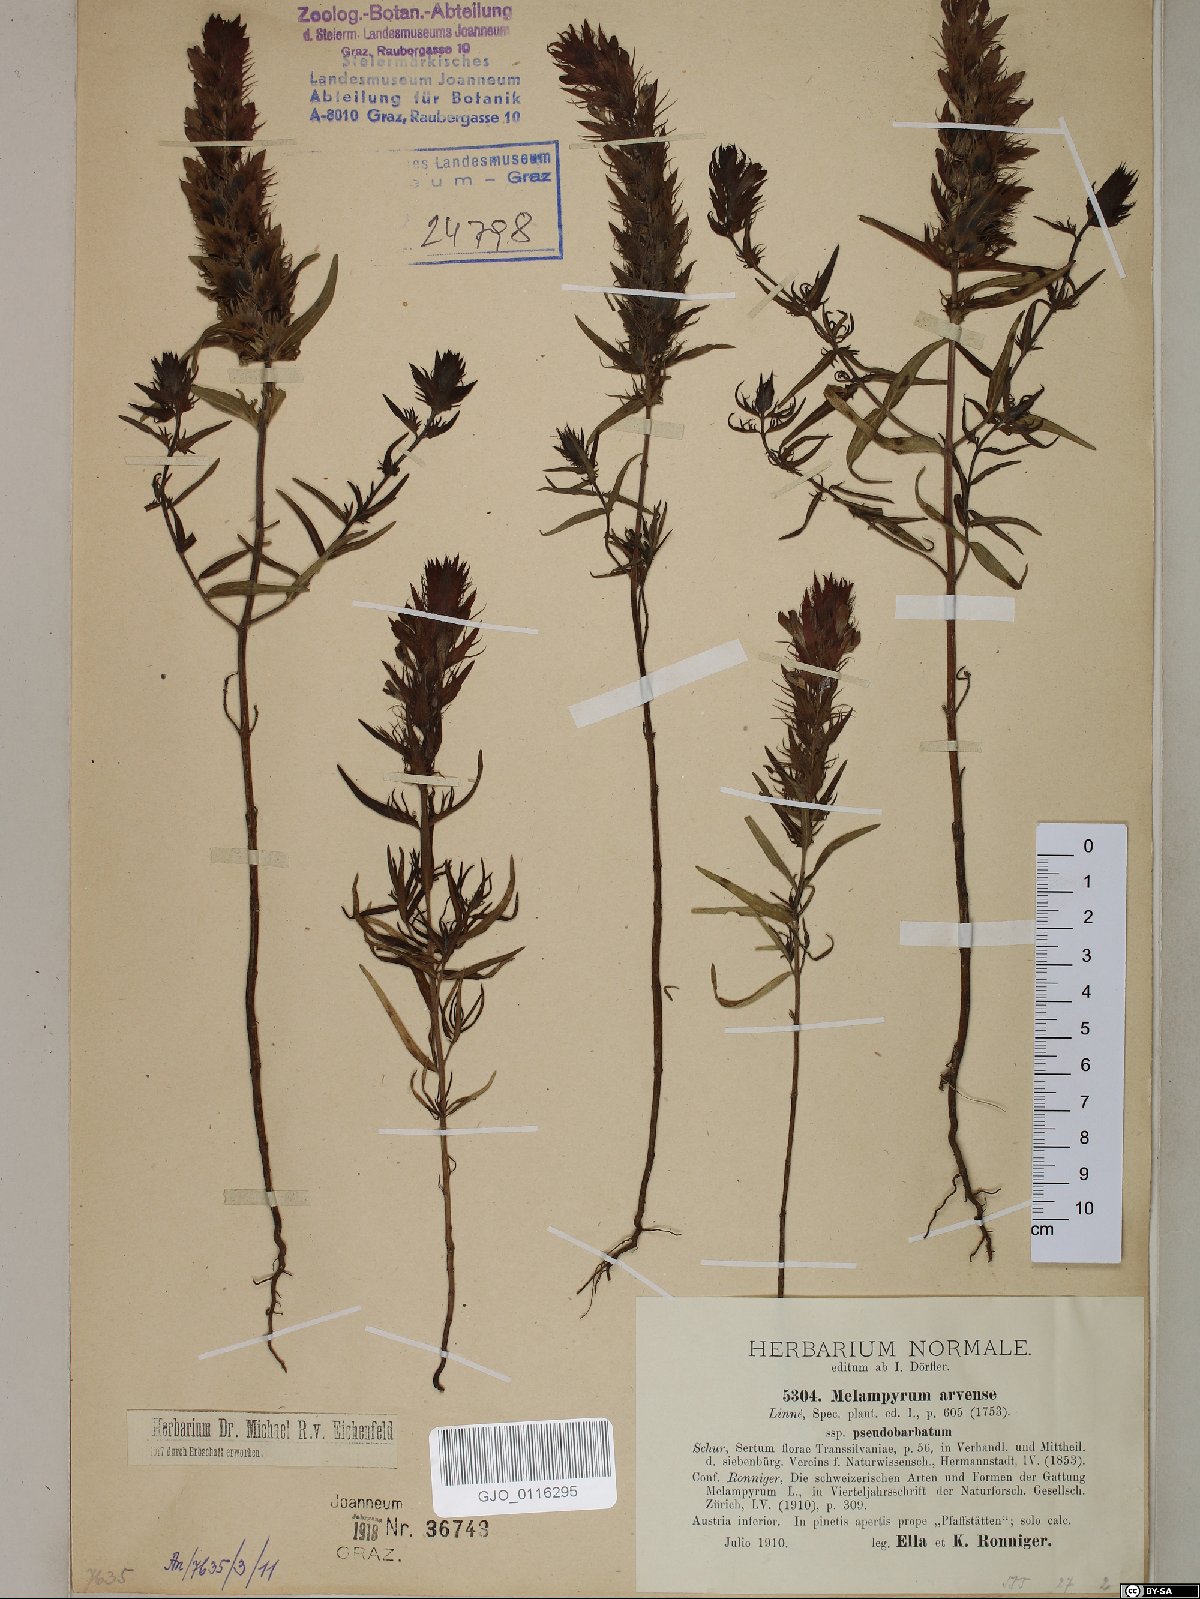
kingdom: Plantae
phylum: Tracheophyta
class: Magnoliopsida
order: Lamiales
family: Orobanchaceae
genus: Melampyrum
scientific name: Melampyrum arvense
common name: Field cow-wheat
